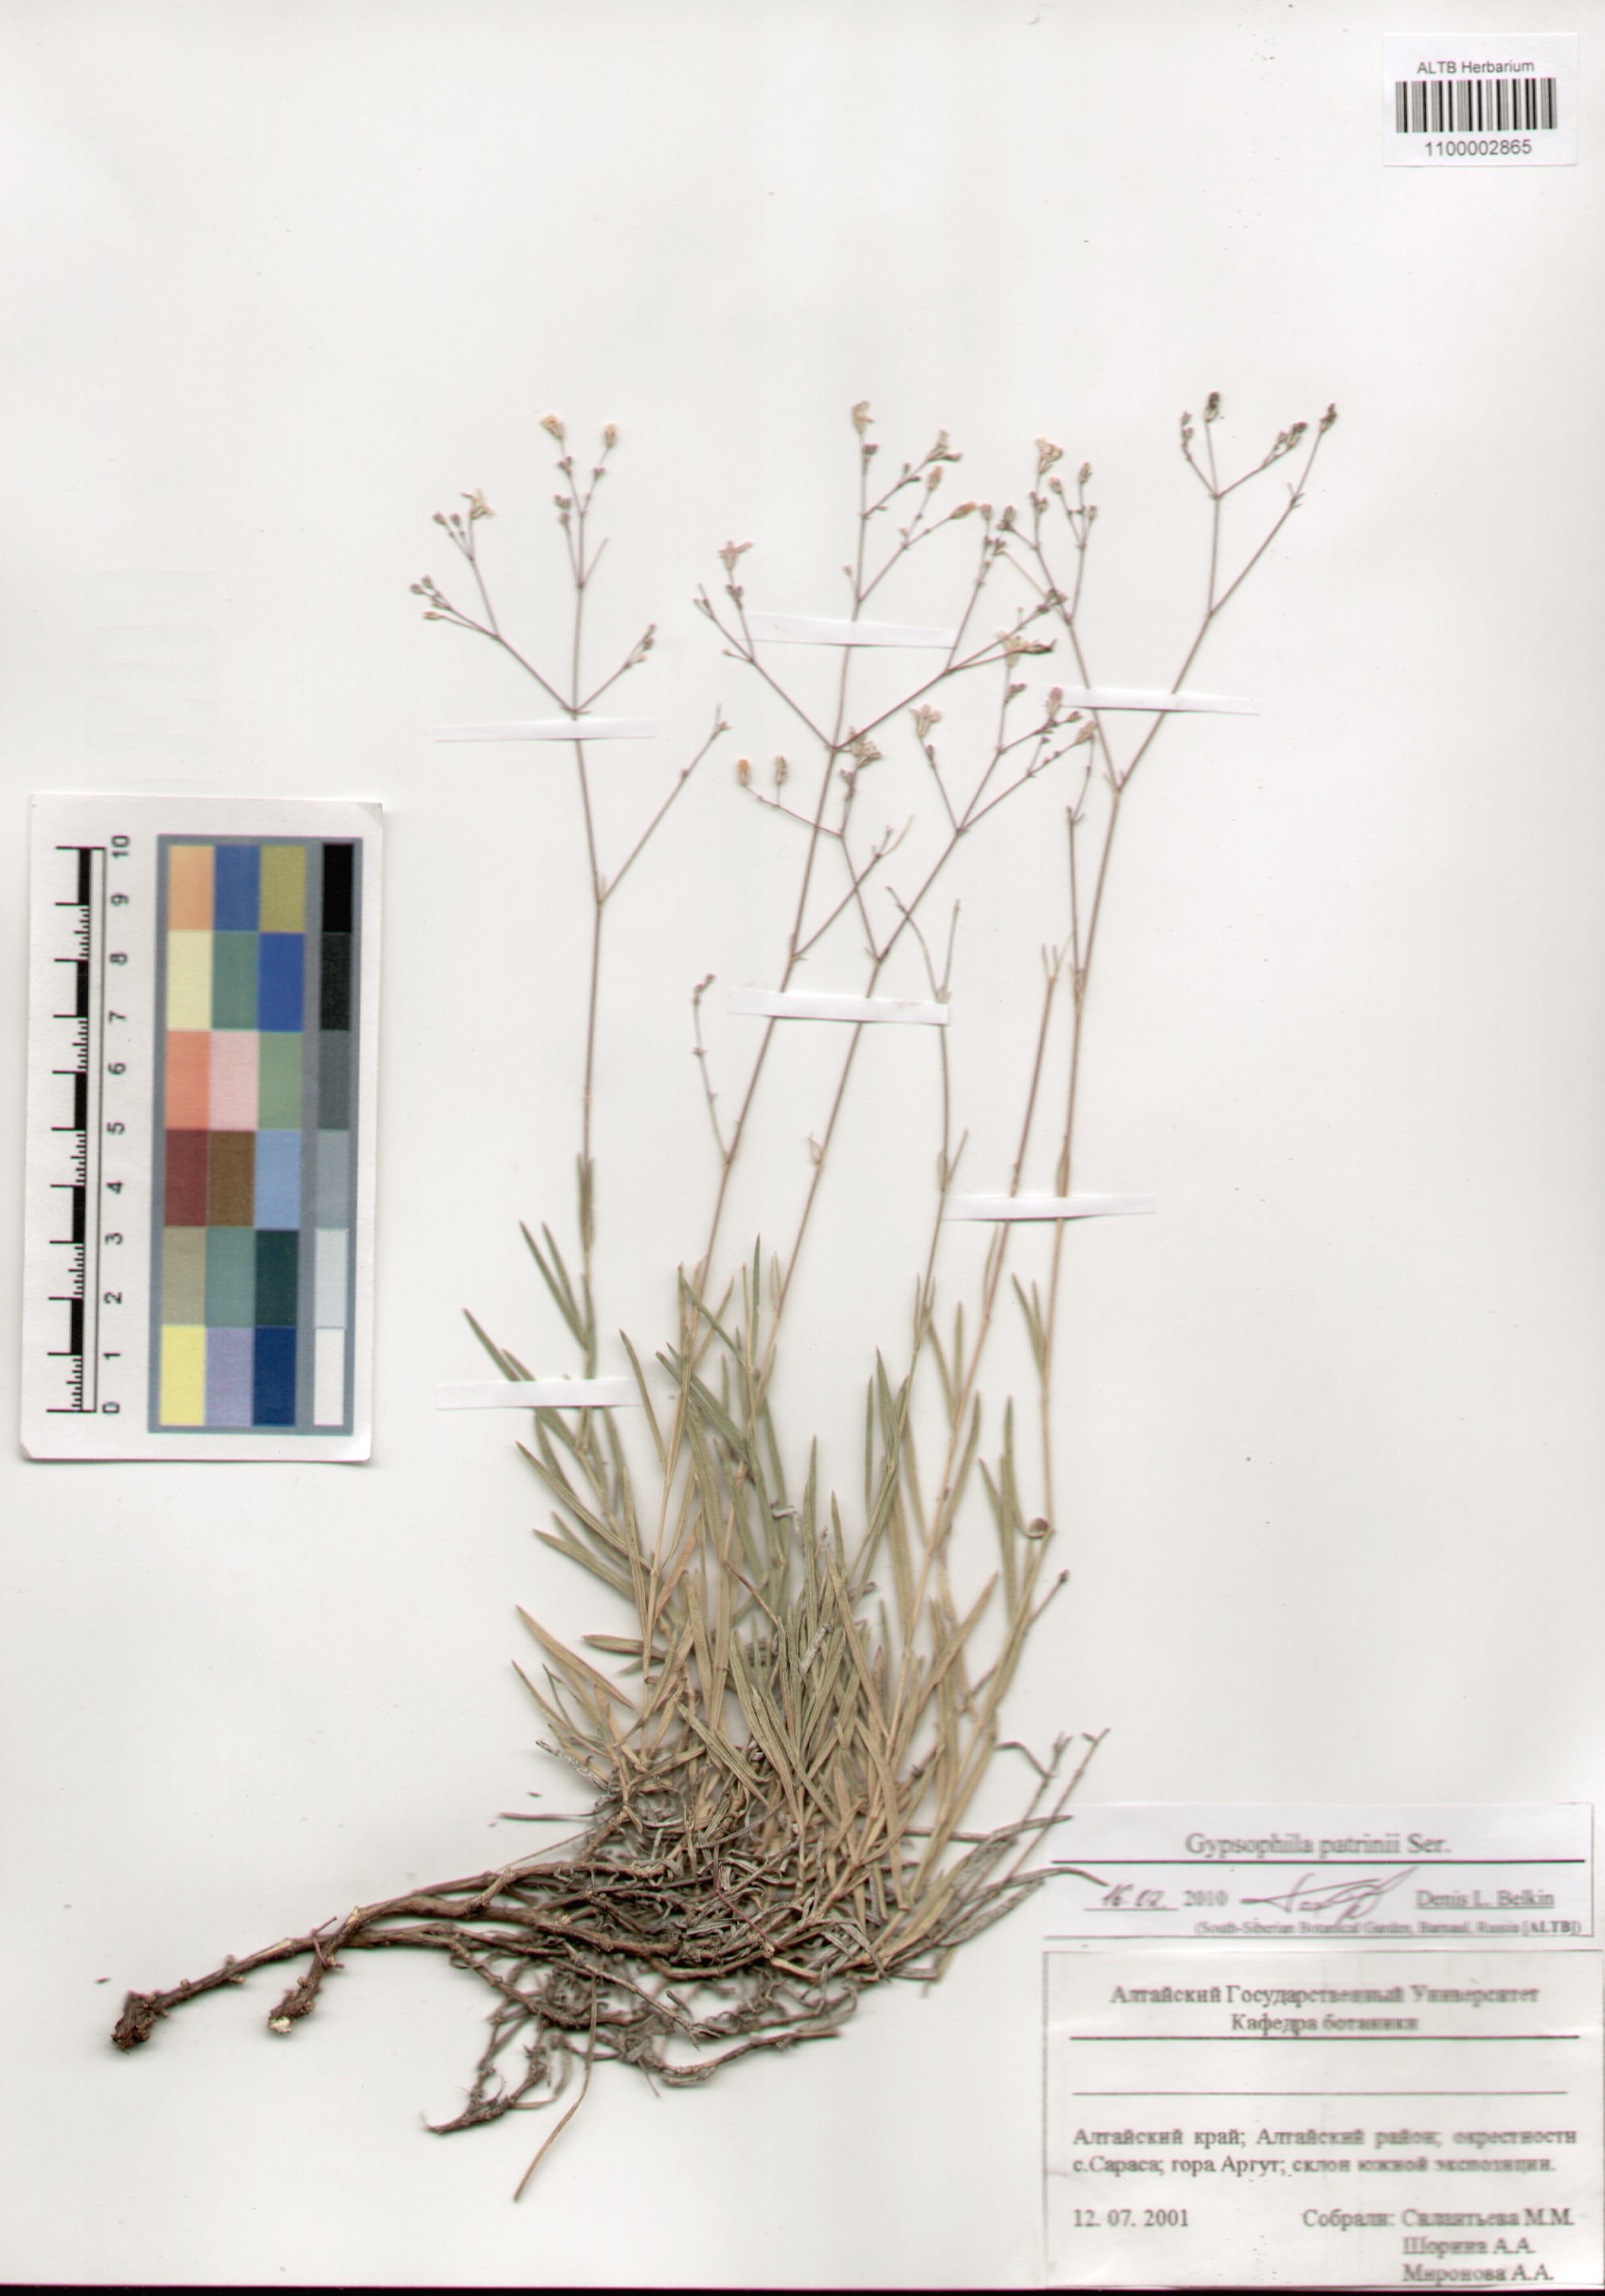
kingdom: Plantae
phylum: Tracheophyta
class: Magnoliopsida
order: Caryophyllales
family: Caryophyllaceae
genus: Gypsophila
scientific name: Gypsophila patrinii
